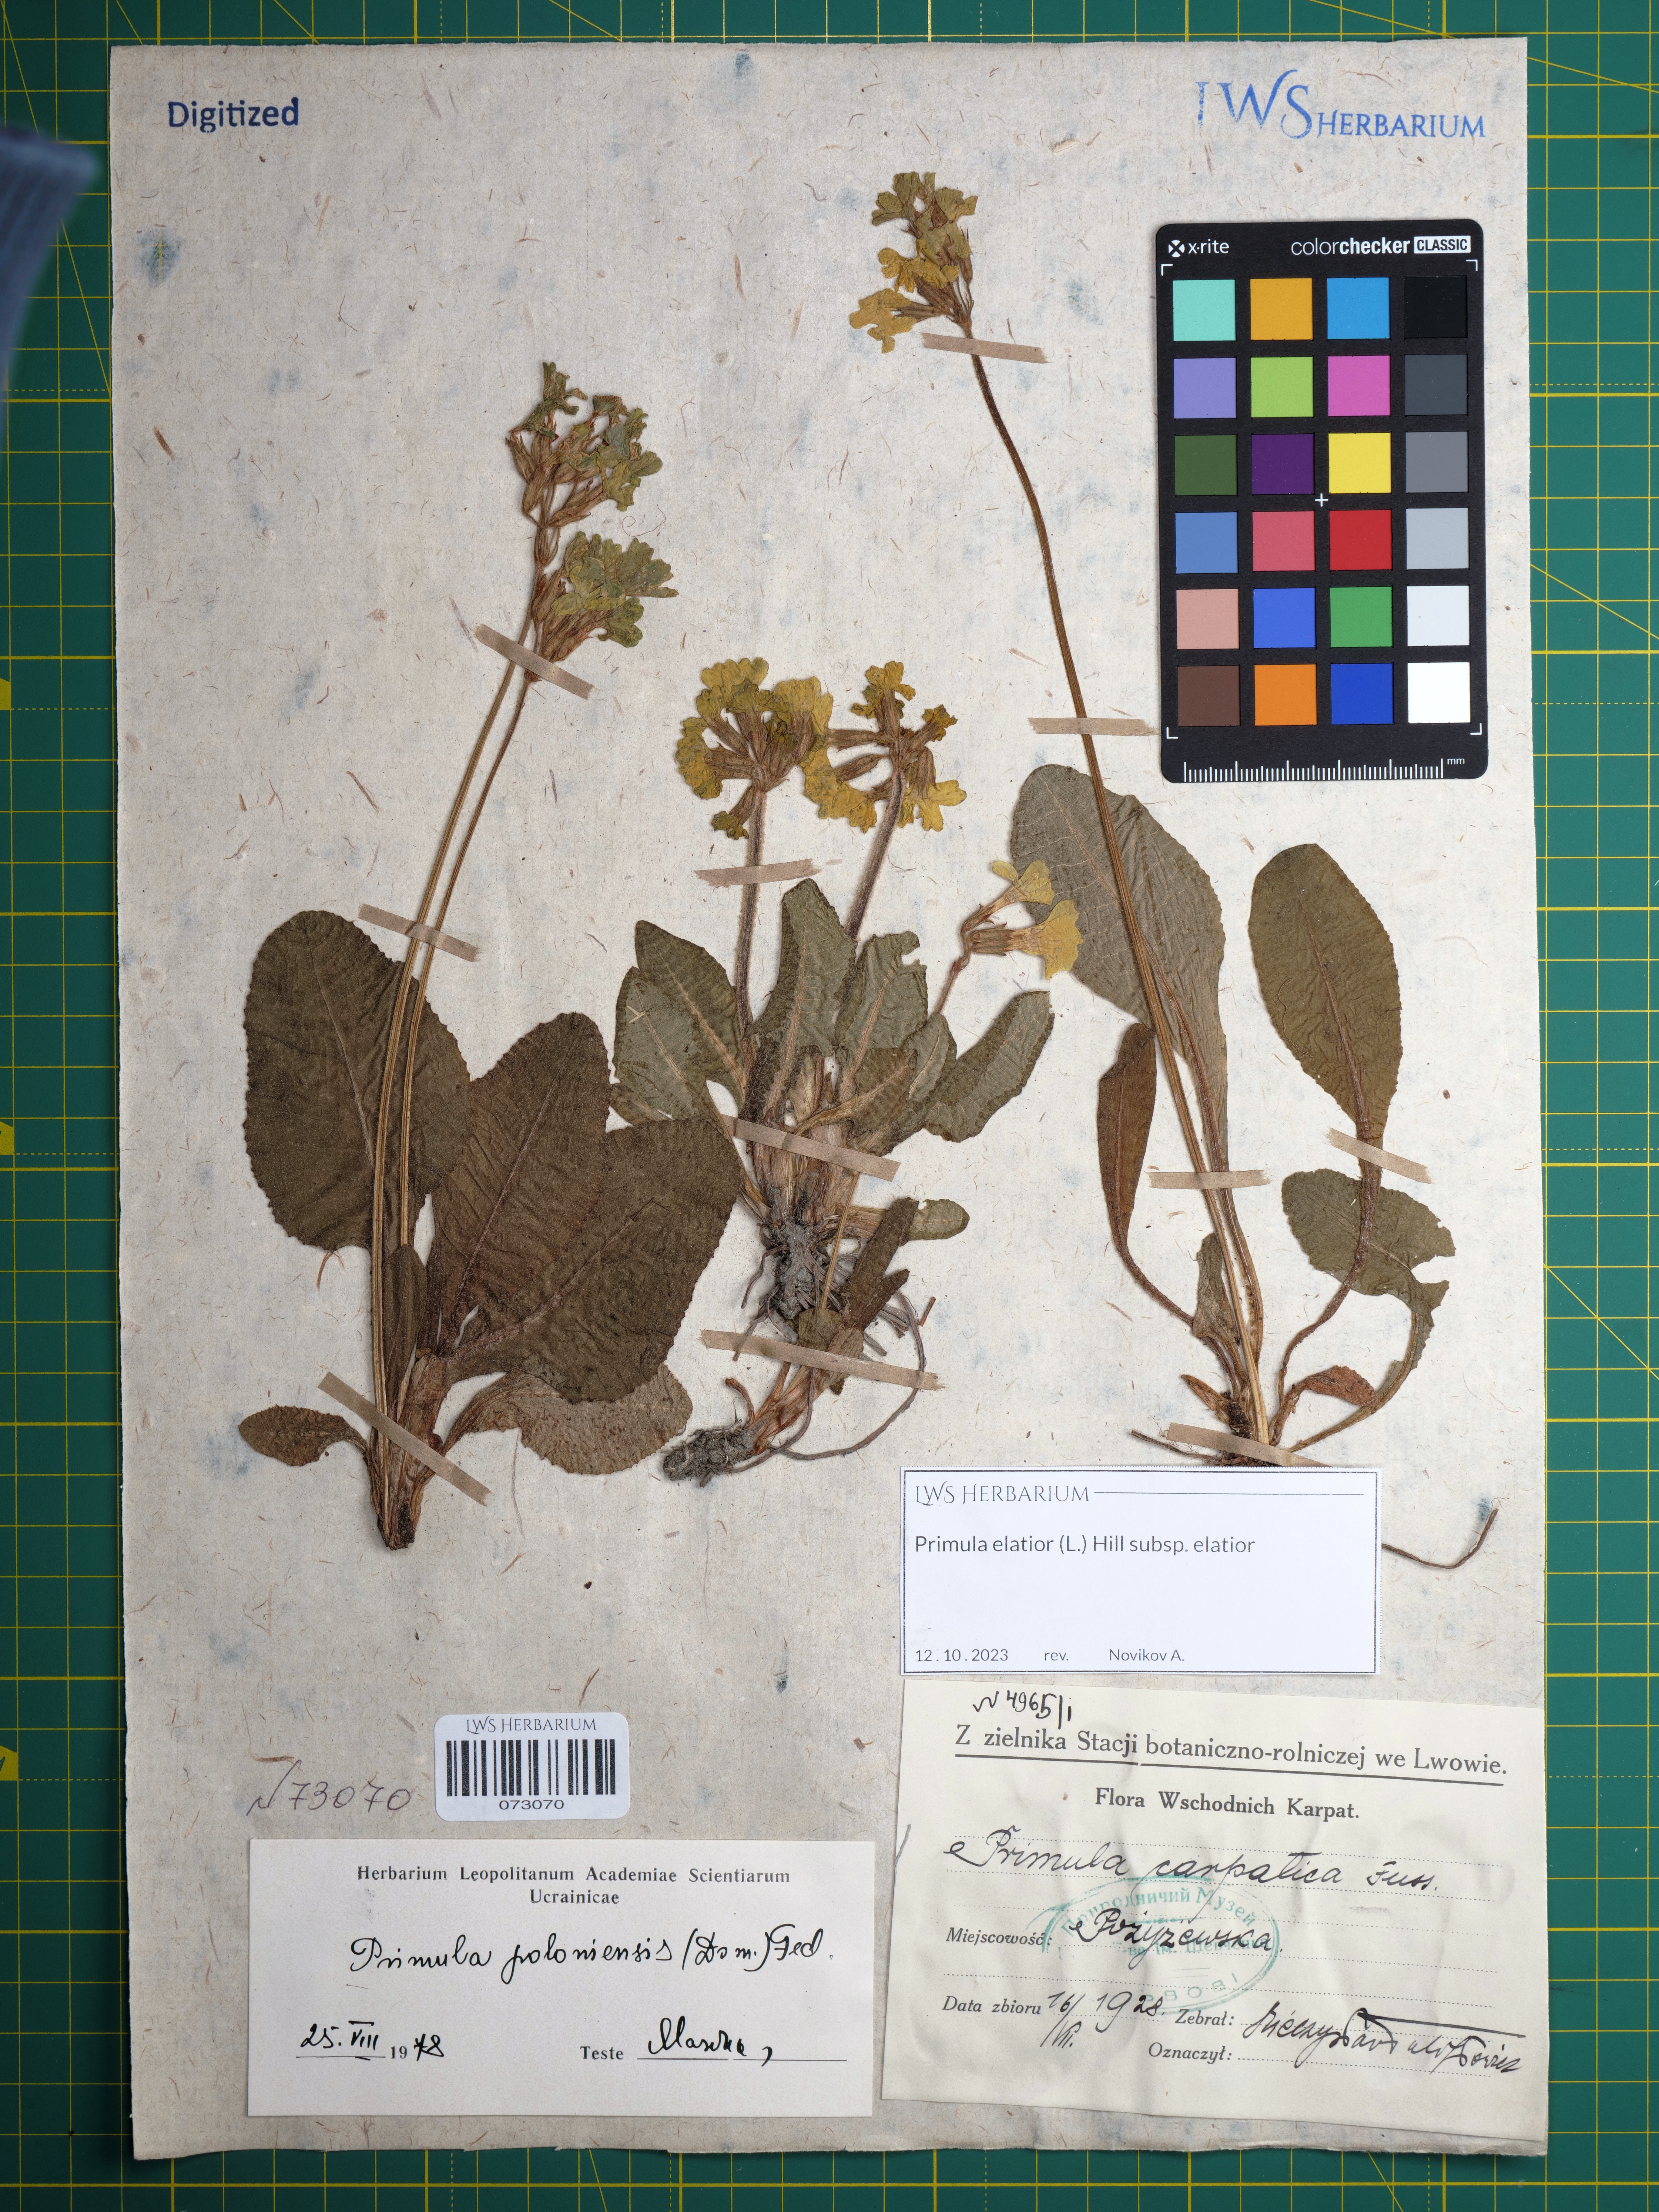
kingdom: Plantae
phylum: Tracheophyta
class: Magnoliopsida
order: Ericales
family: Primulaceae
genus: Primula
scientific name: Primula elatior
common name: Oxlip
